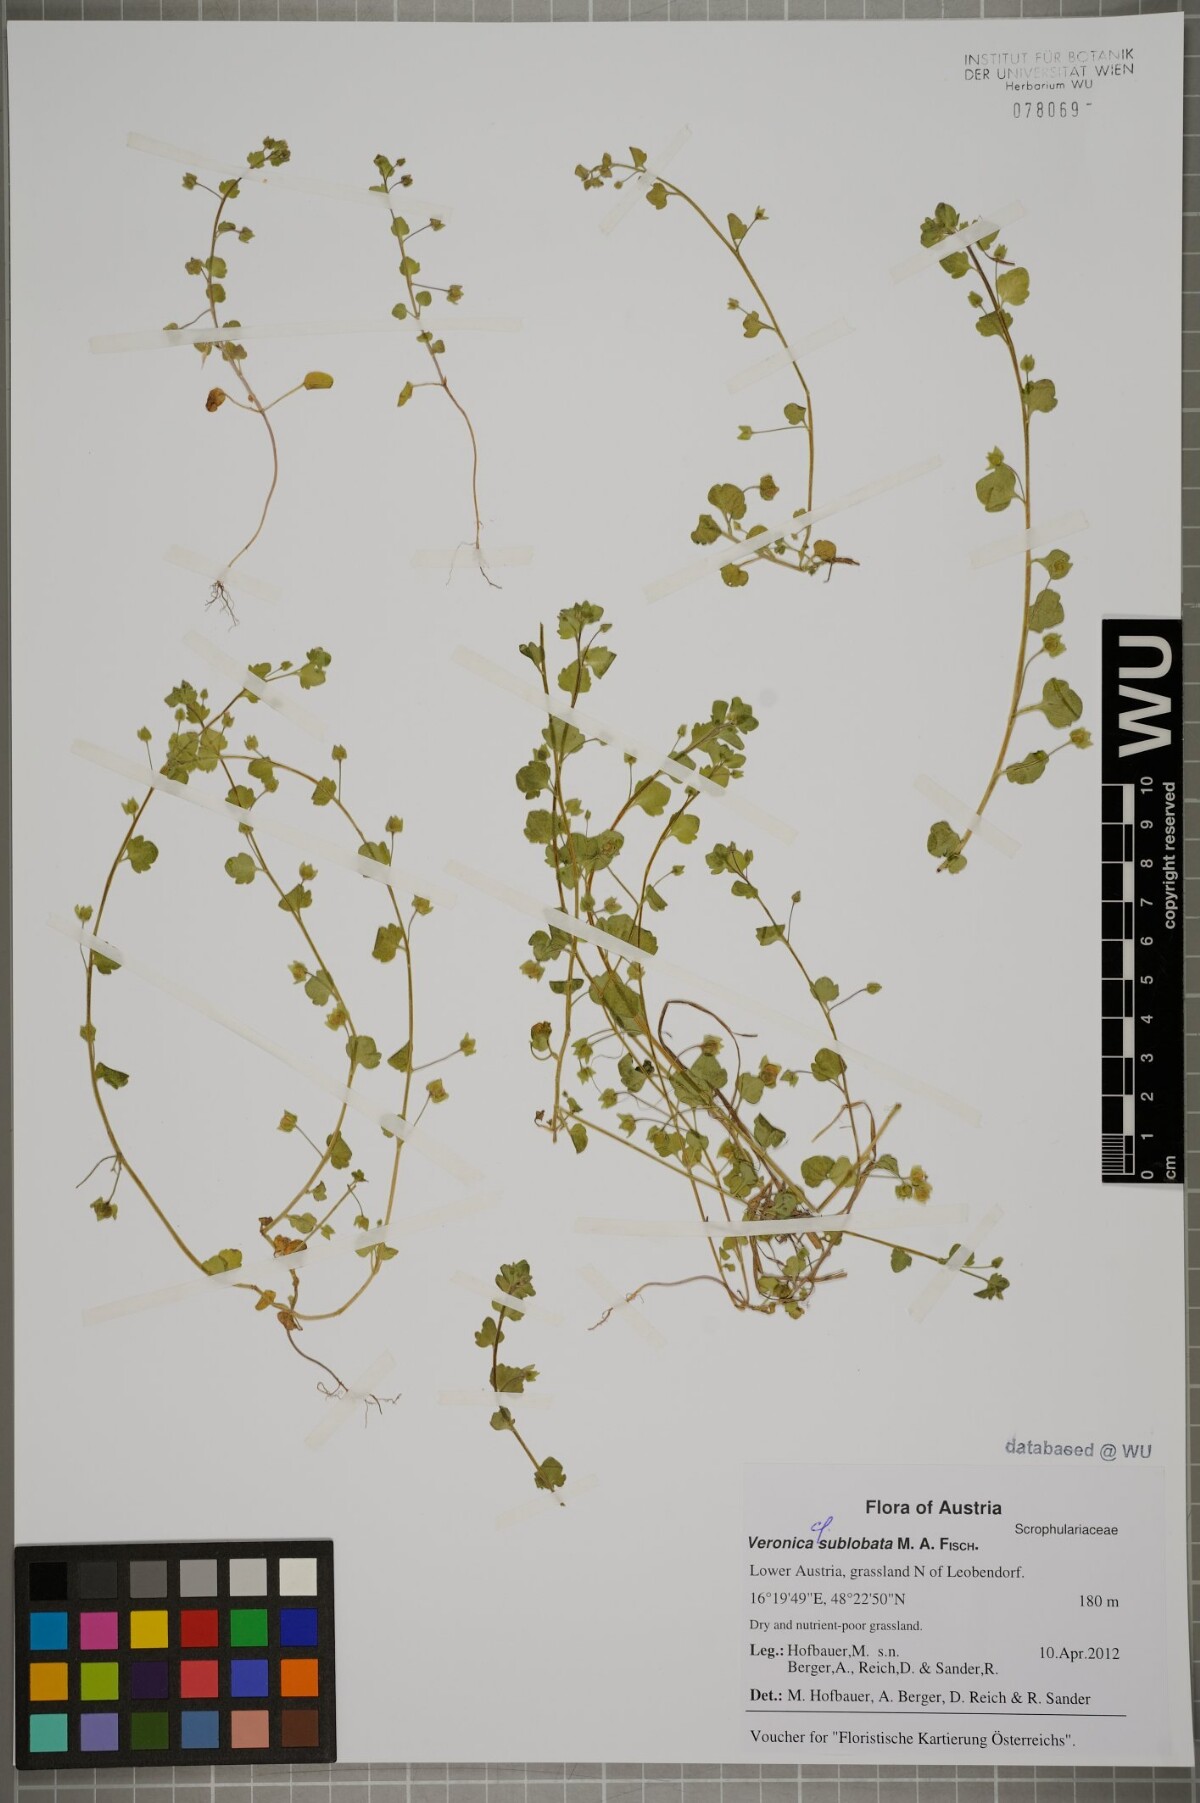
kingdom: Plantae
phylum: Tracheophyta
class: Magnoliopsida
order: Lamiales
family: Plantaginaceae
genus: Veronica
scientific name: Veronica sublobata
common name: False ivy-leaved speedwell
